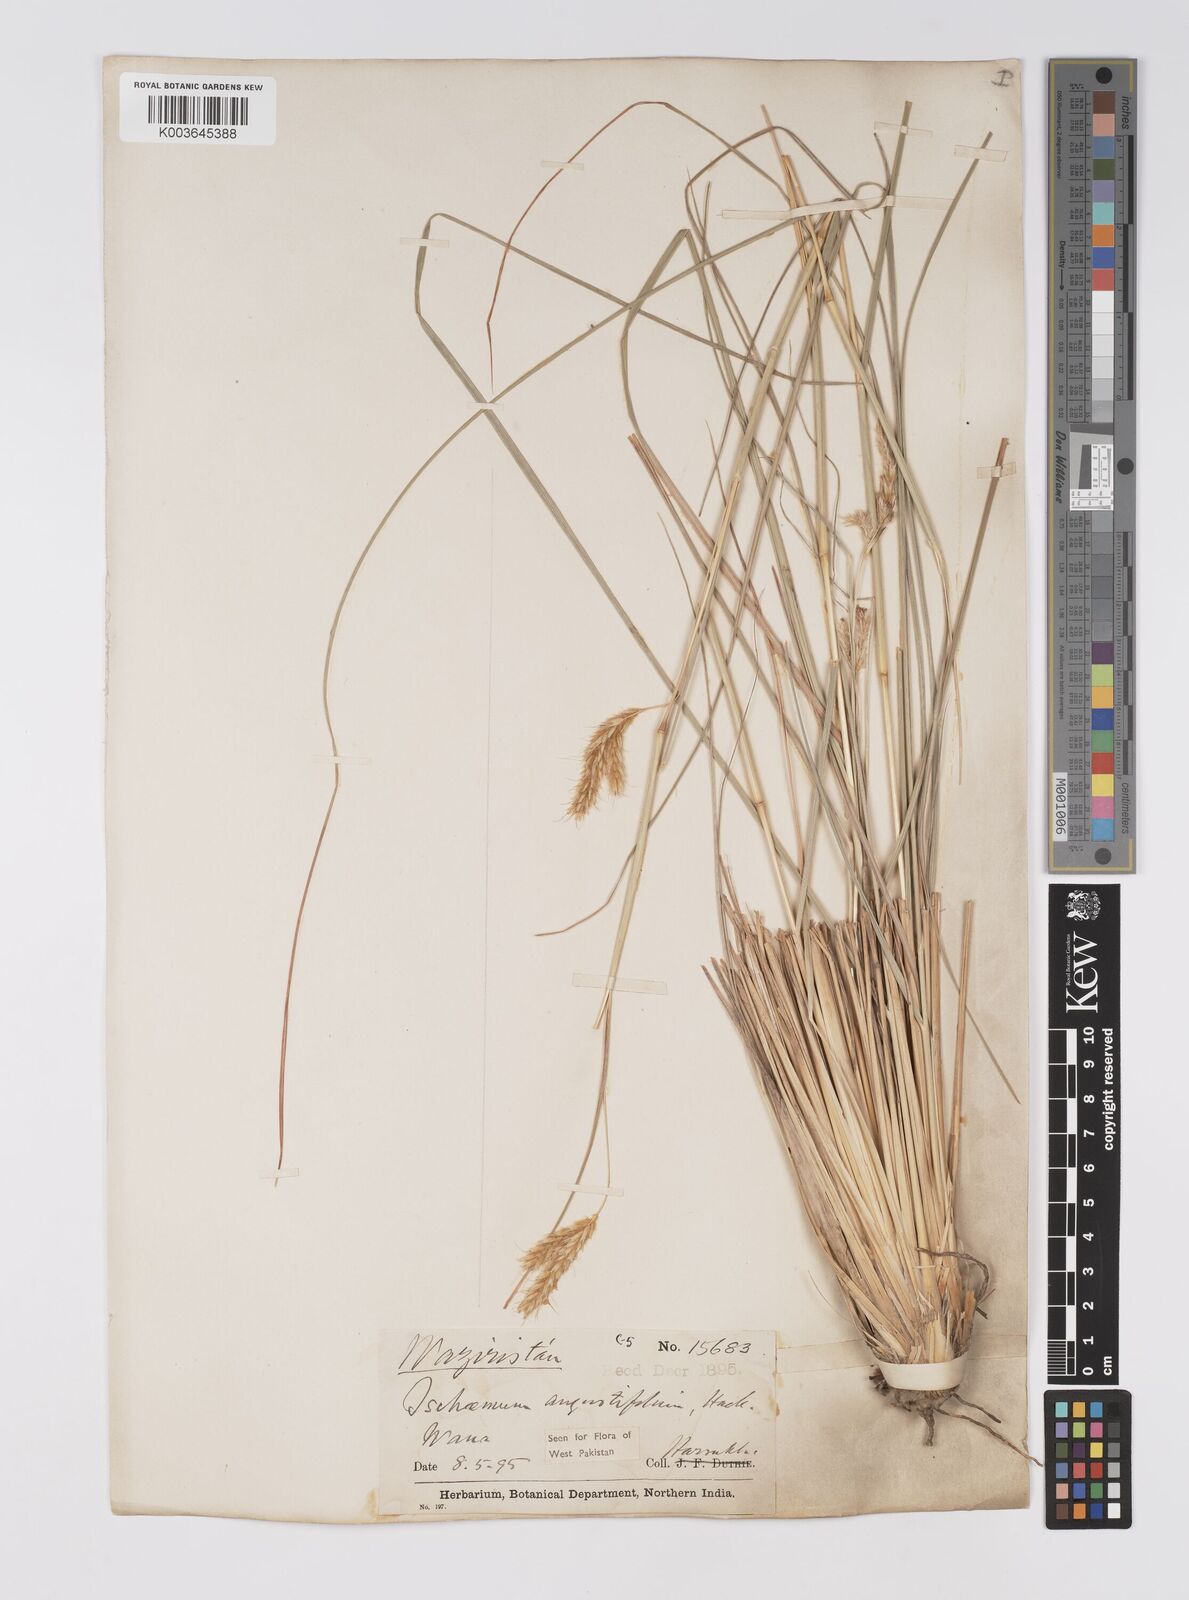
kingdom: Plantae
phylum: Tracheophyta
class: Liliopsida
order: Poales
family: Poaceae
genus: Eulaliopsis
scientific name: Eulaliopsis binata
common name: Baib grass
